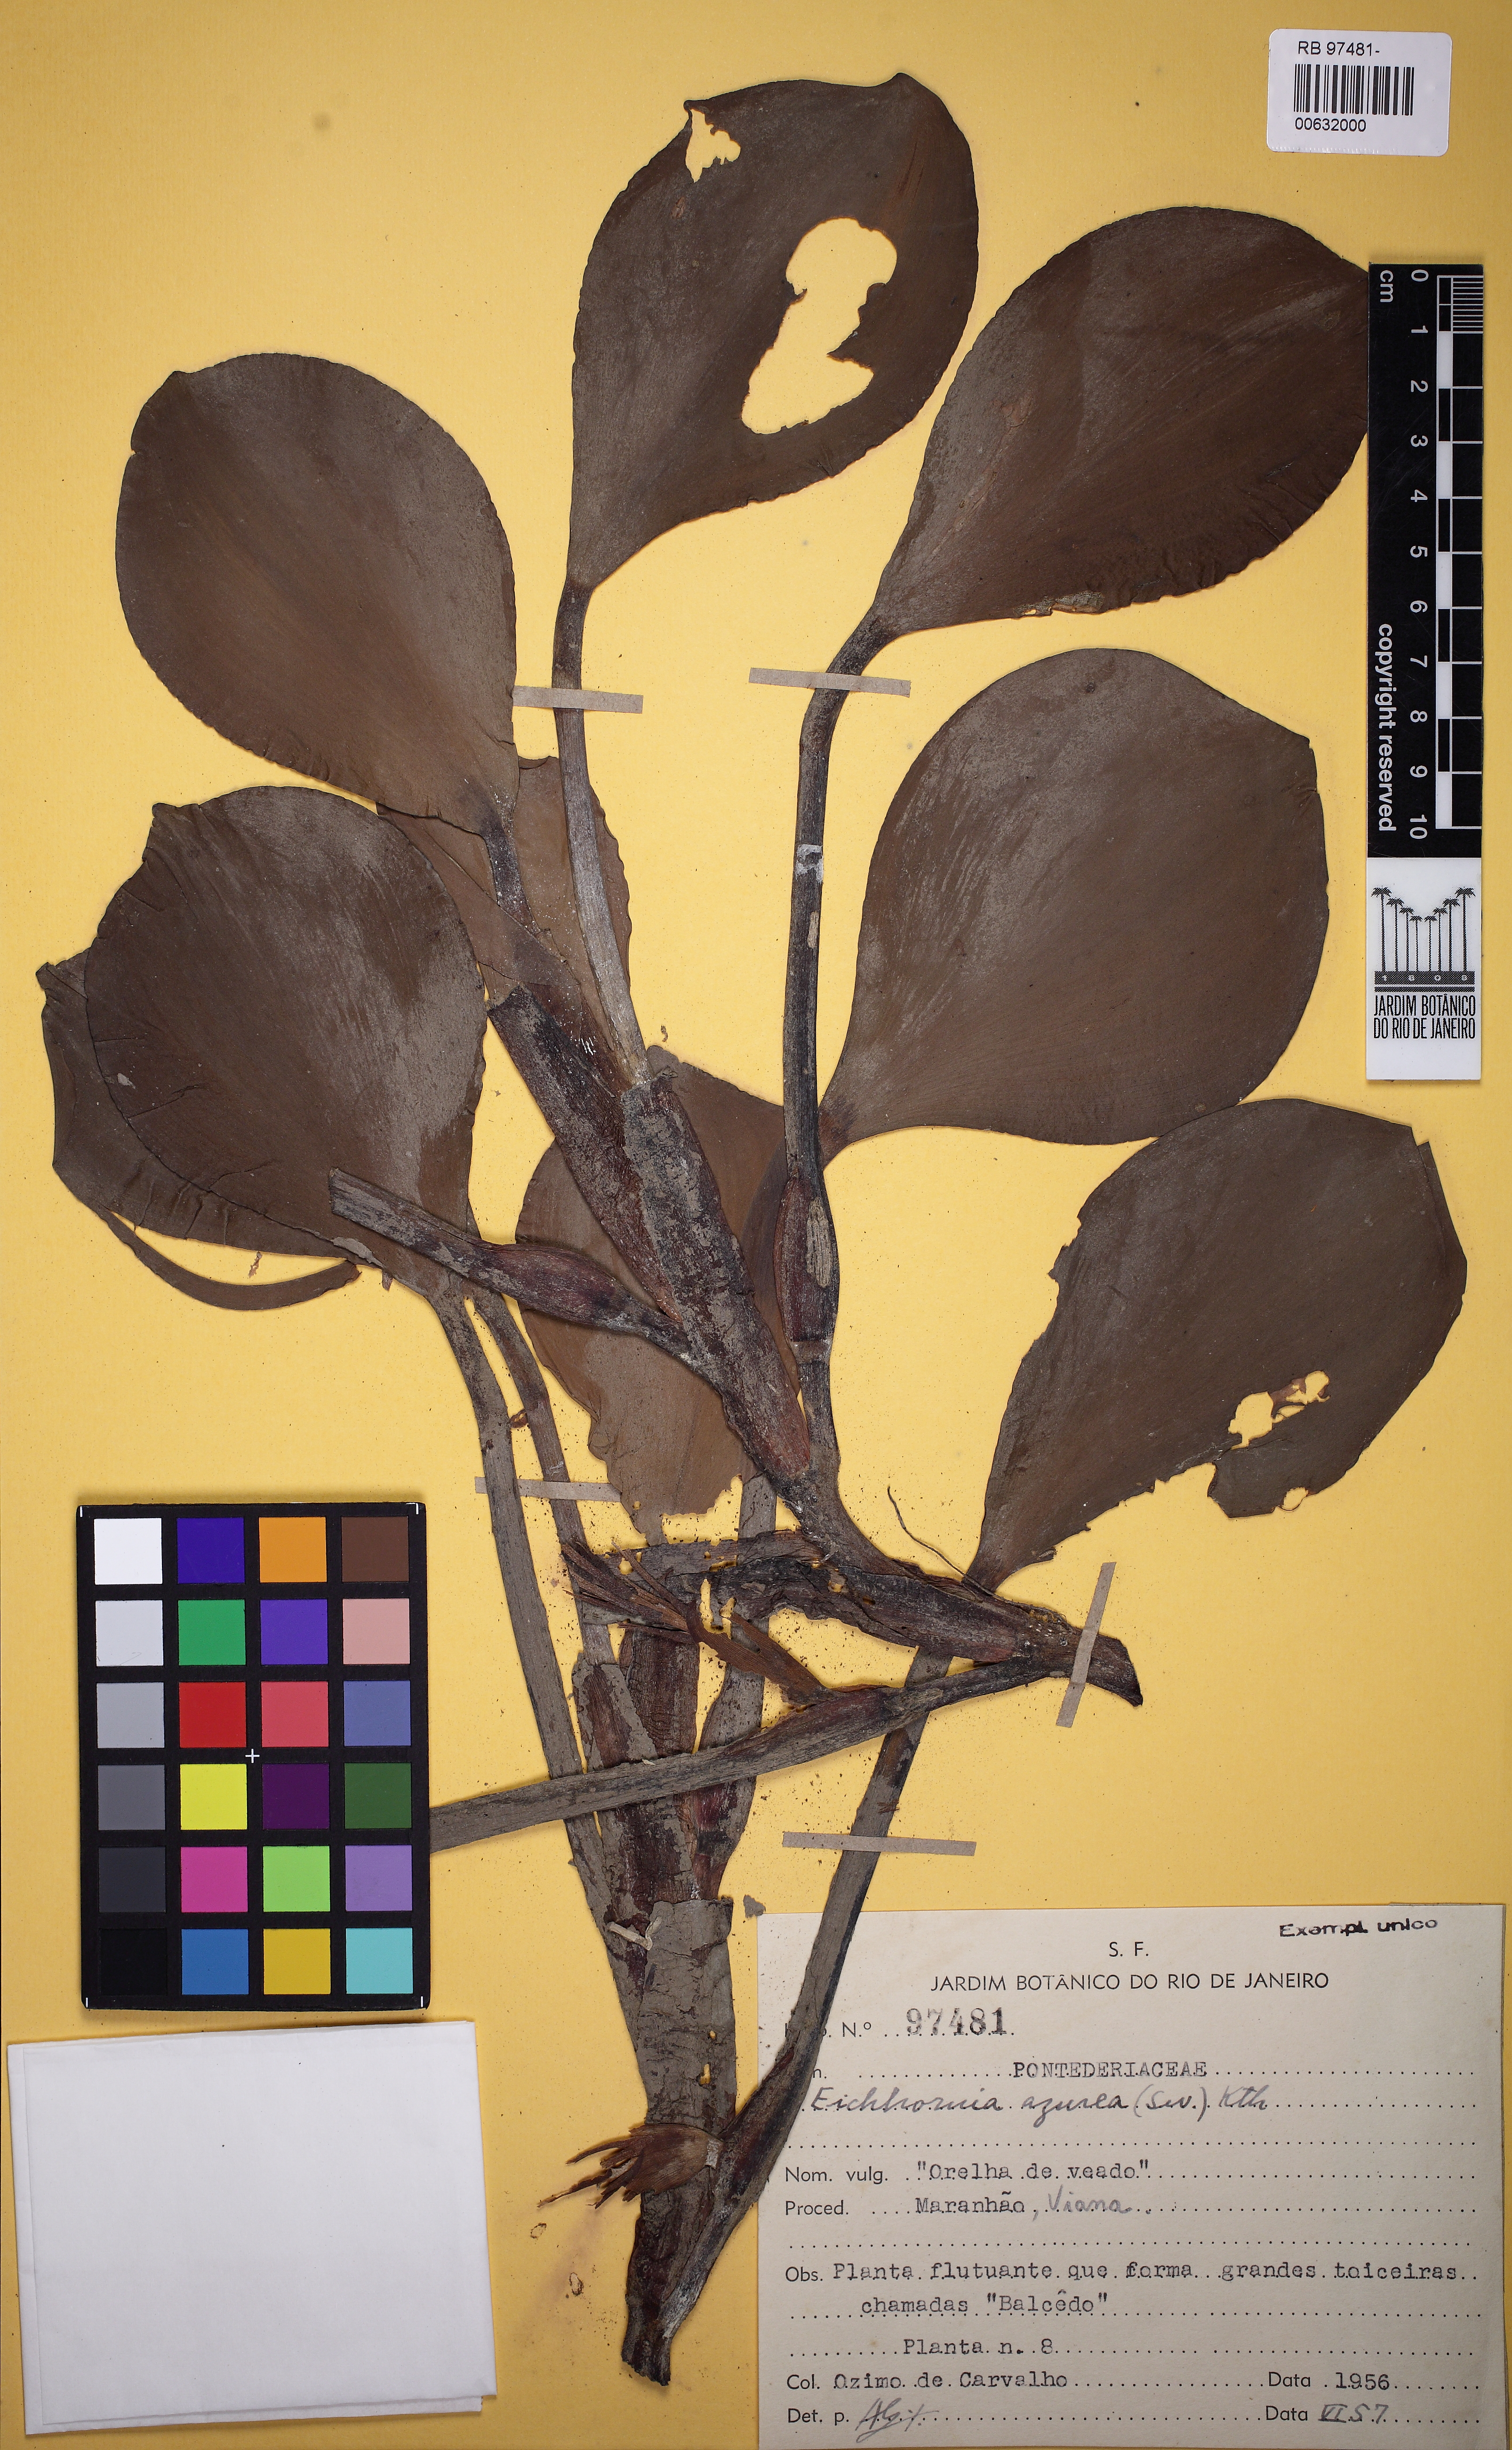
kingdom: Plantae
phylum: Tracheophyta
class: Liliopsida
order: Commelinales
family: Pontederiaceae
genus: Pontederia
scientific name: Pontederia azurea
